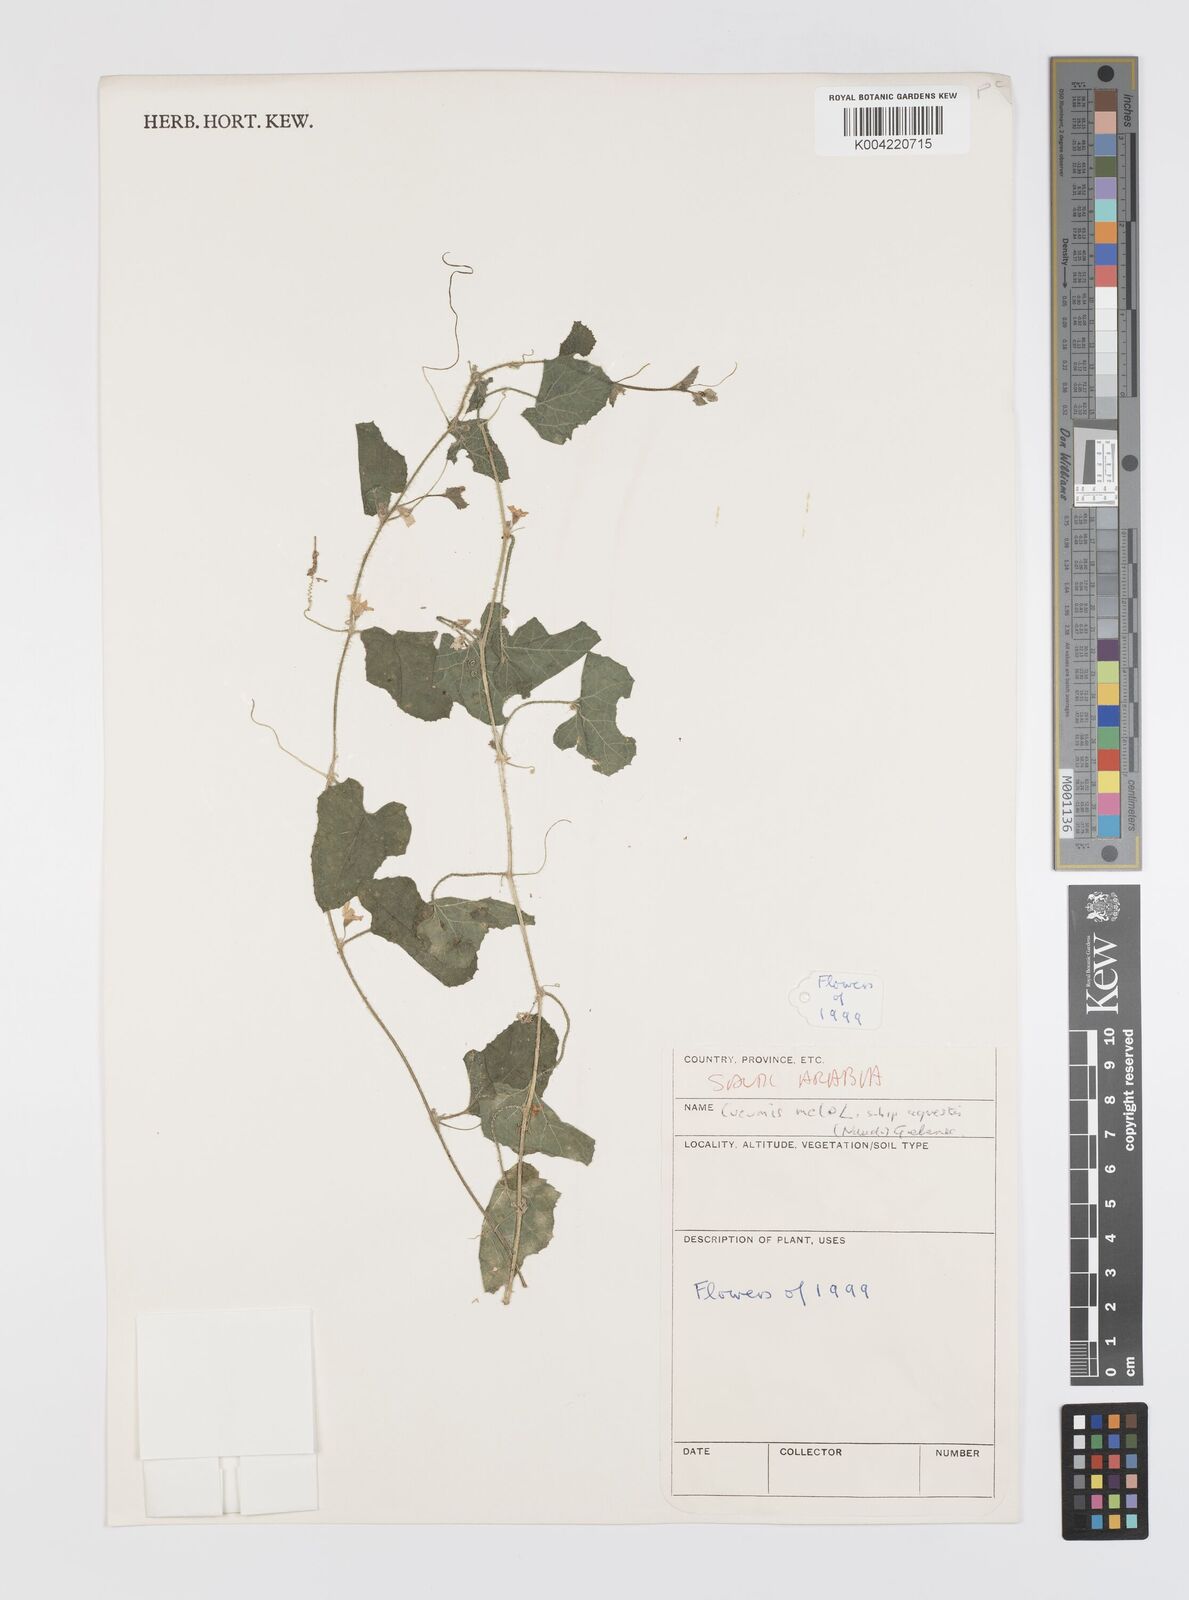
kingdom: Plantae
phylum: Tracheophyta
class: Magnoliopsida
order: Cucurbitales
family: Cucurbitaceae
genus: Cucumis
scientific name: Cucumis melo
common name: Melon
